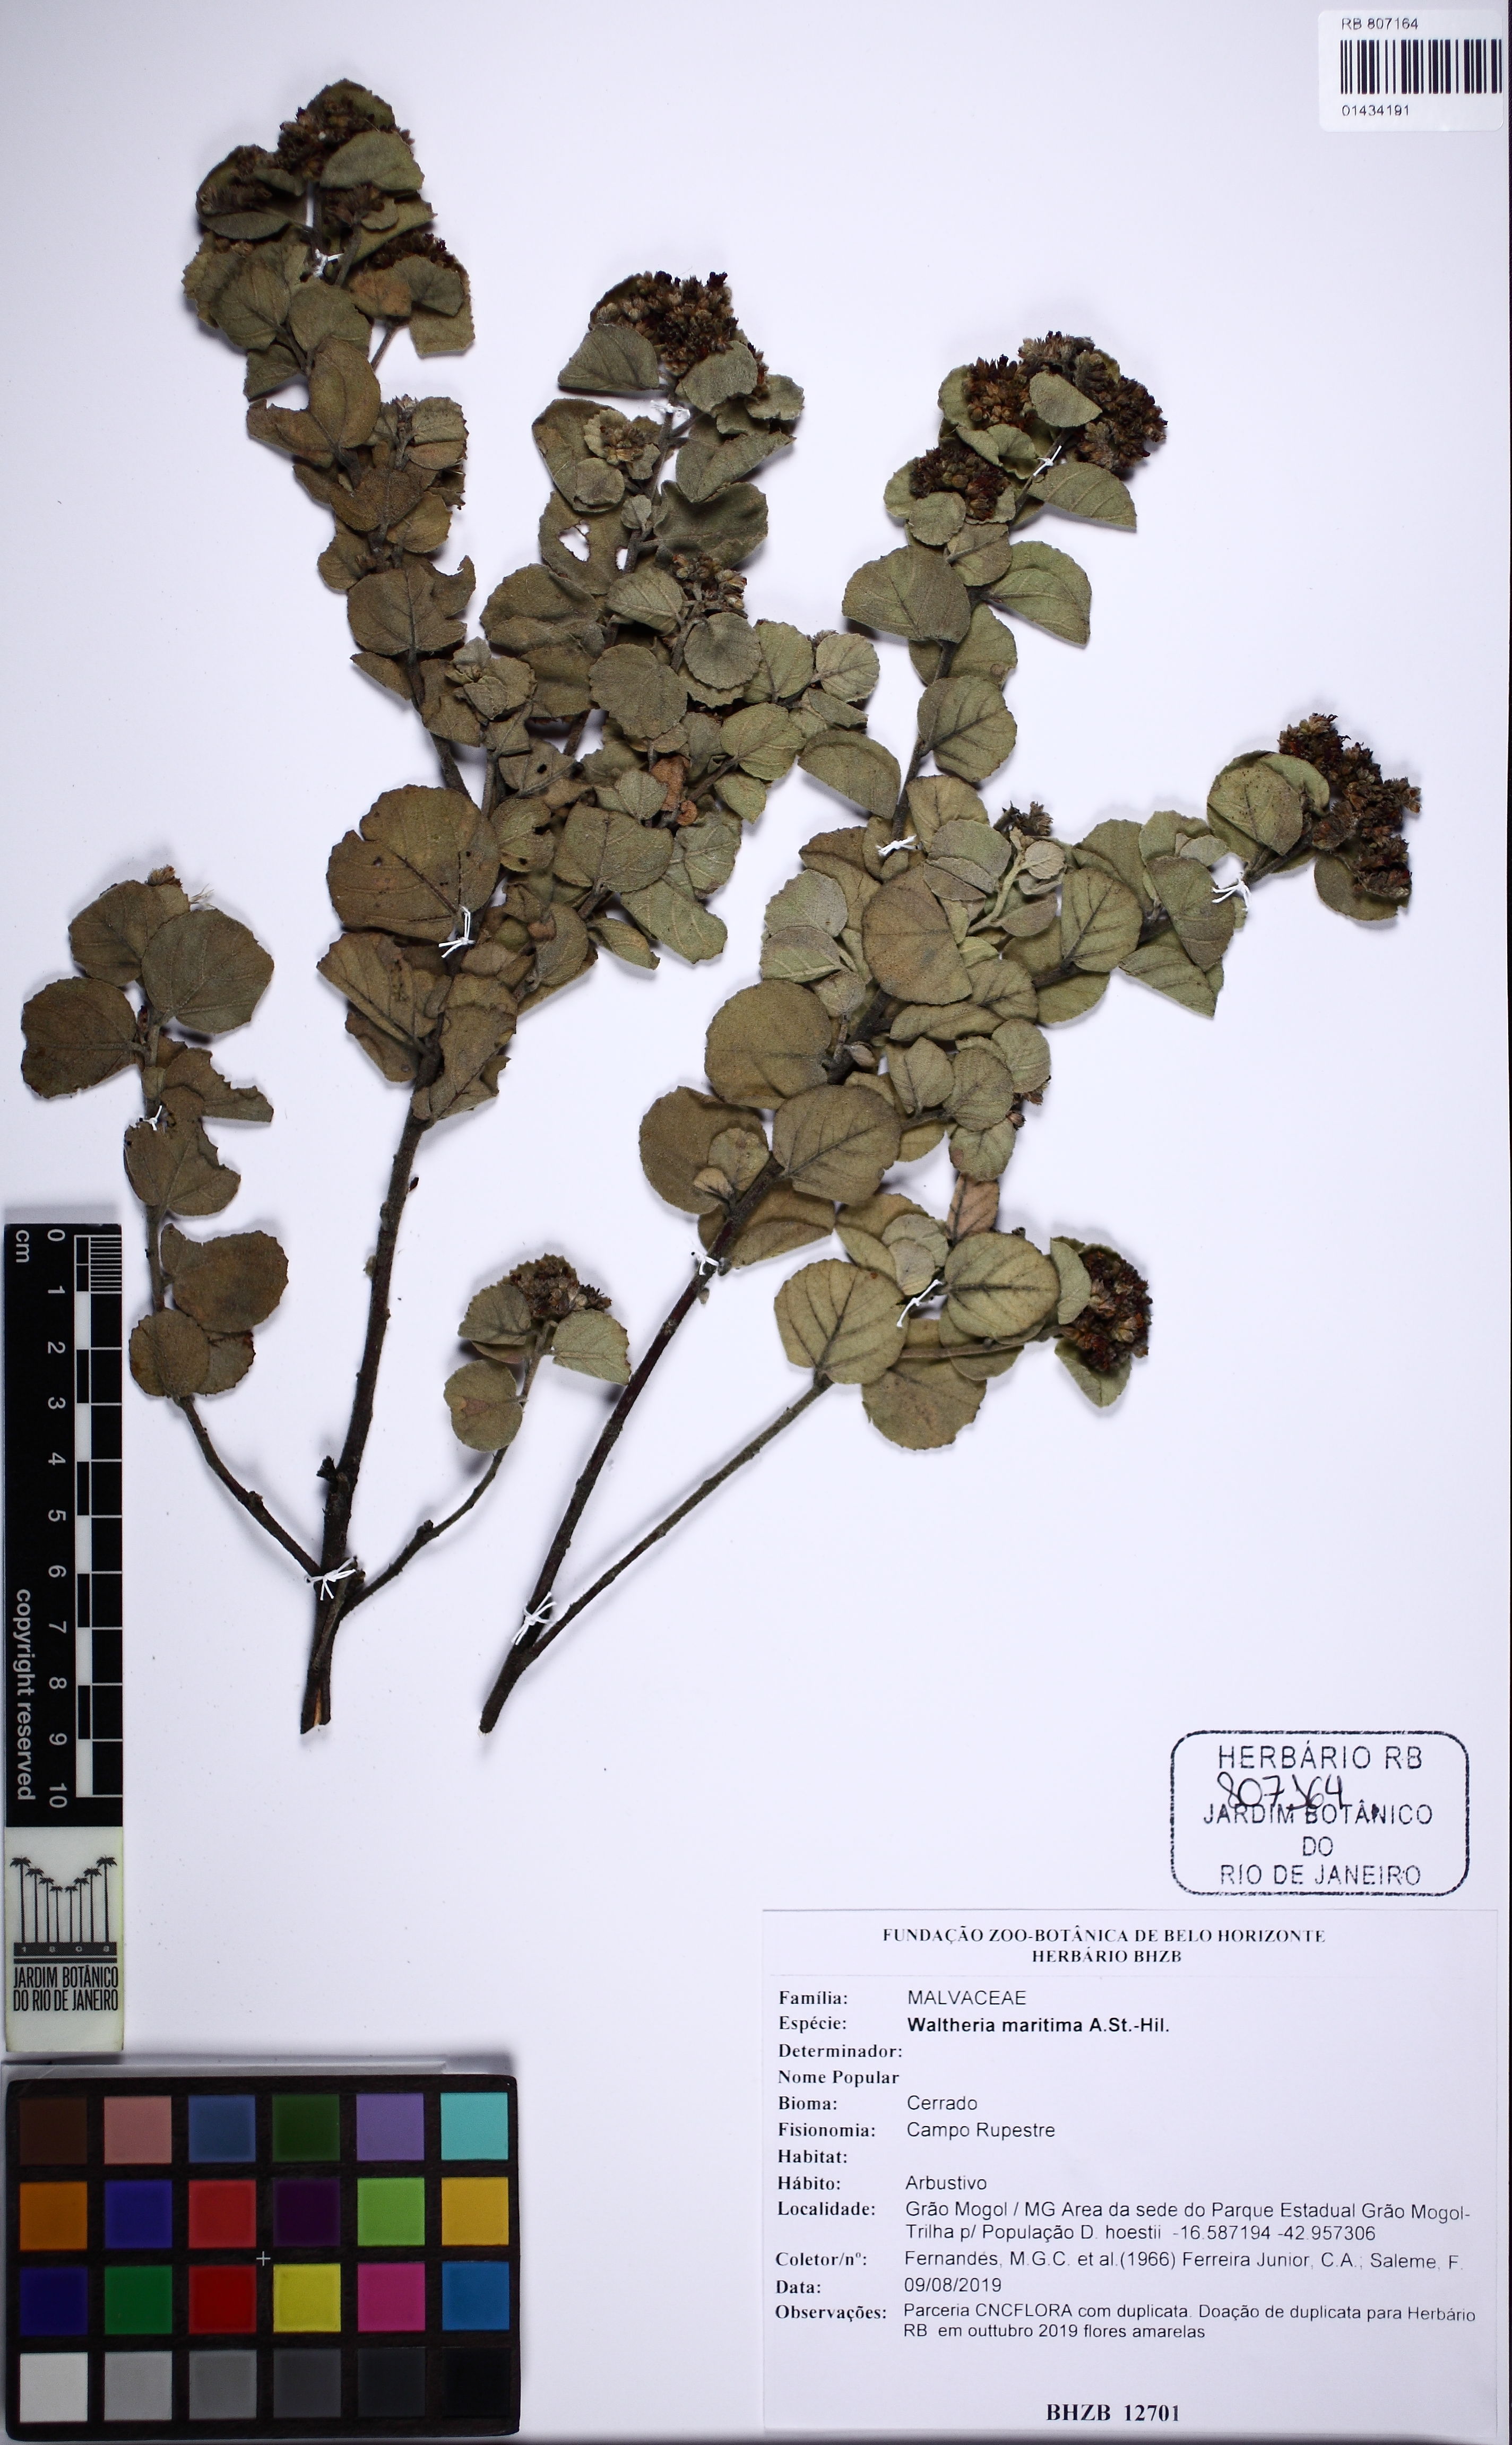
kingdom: Plantae
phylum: Tracheophyta
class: Magnoliopsida
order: Malvales
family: Malvaceae
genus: Waltheria
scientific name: Waltheria maritima
